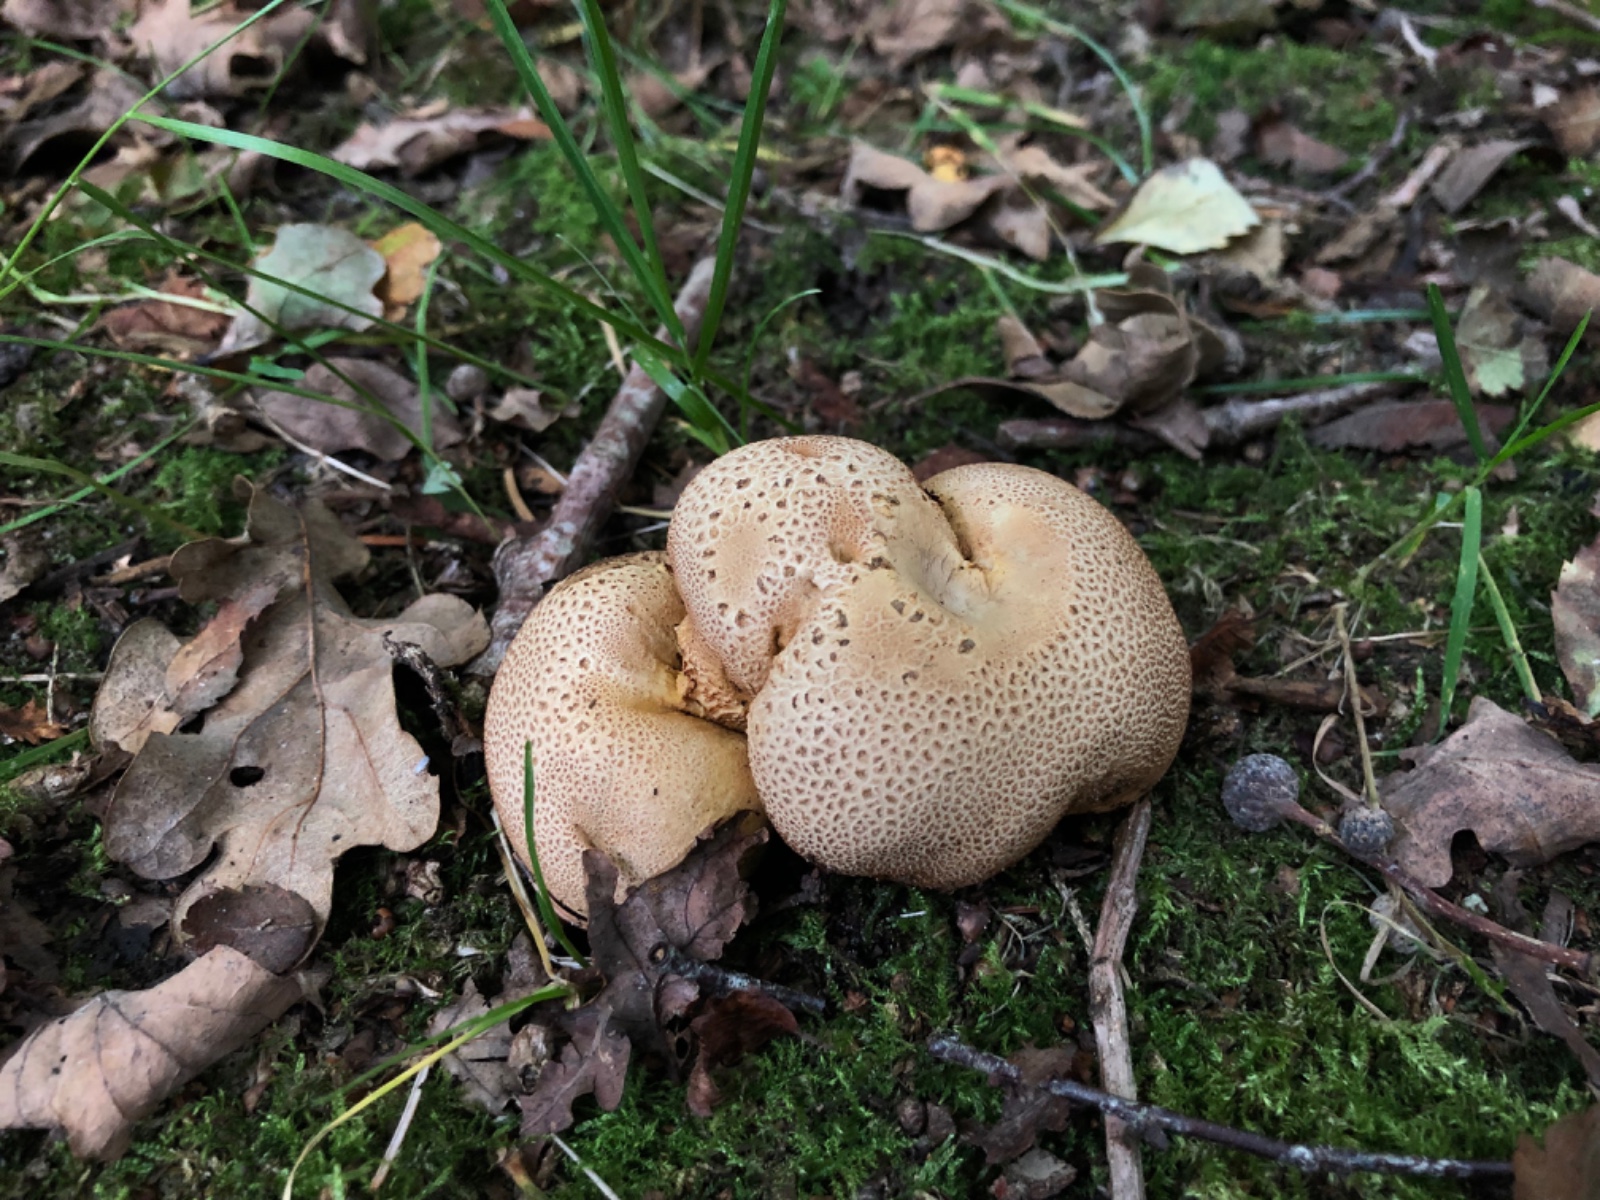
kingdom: Fungi
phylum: Basidiomycota
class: Agaricomycetes
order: Boletales
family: Sclerodermataceae
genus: Scleroderma
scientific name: Scleroderma citrinum
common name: almindelig bruskbold
